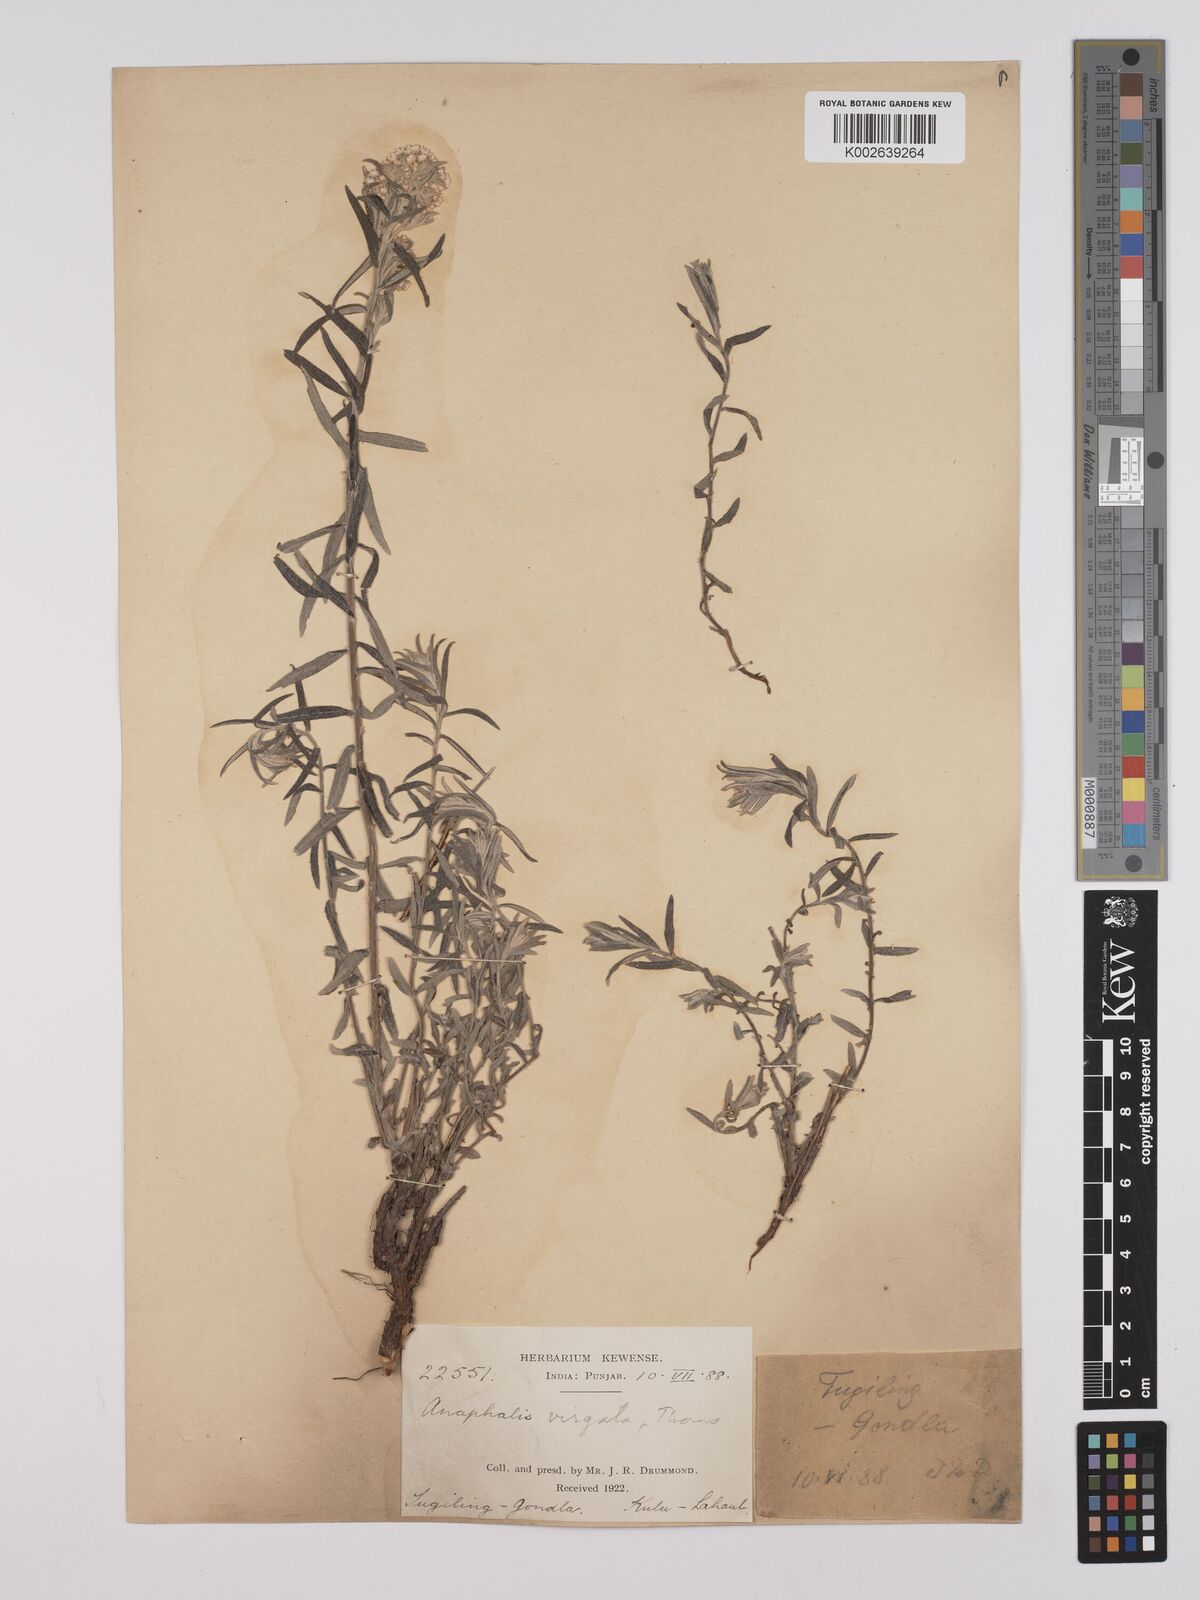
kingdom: Plantae
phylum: Tracheophyta
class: Magnoliopsida
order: Asterales
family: Asteraceae
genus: Anaphalis
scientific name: Anaphalis virgata
